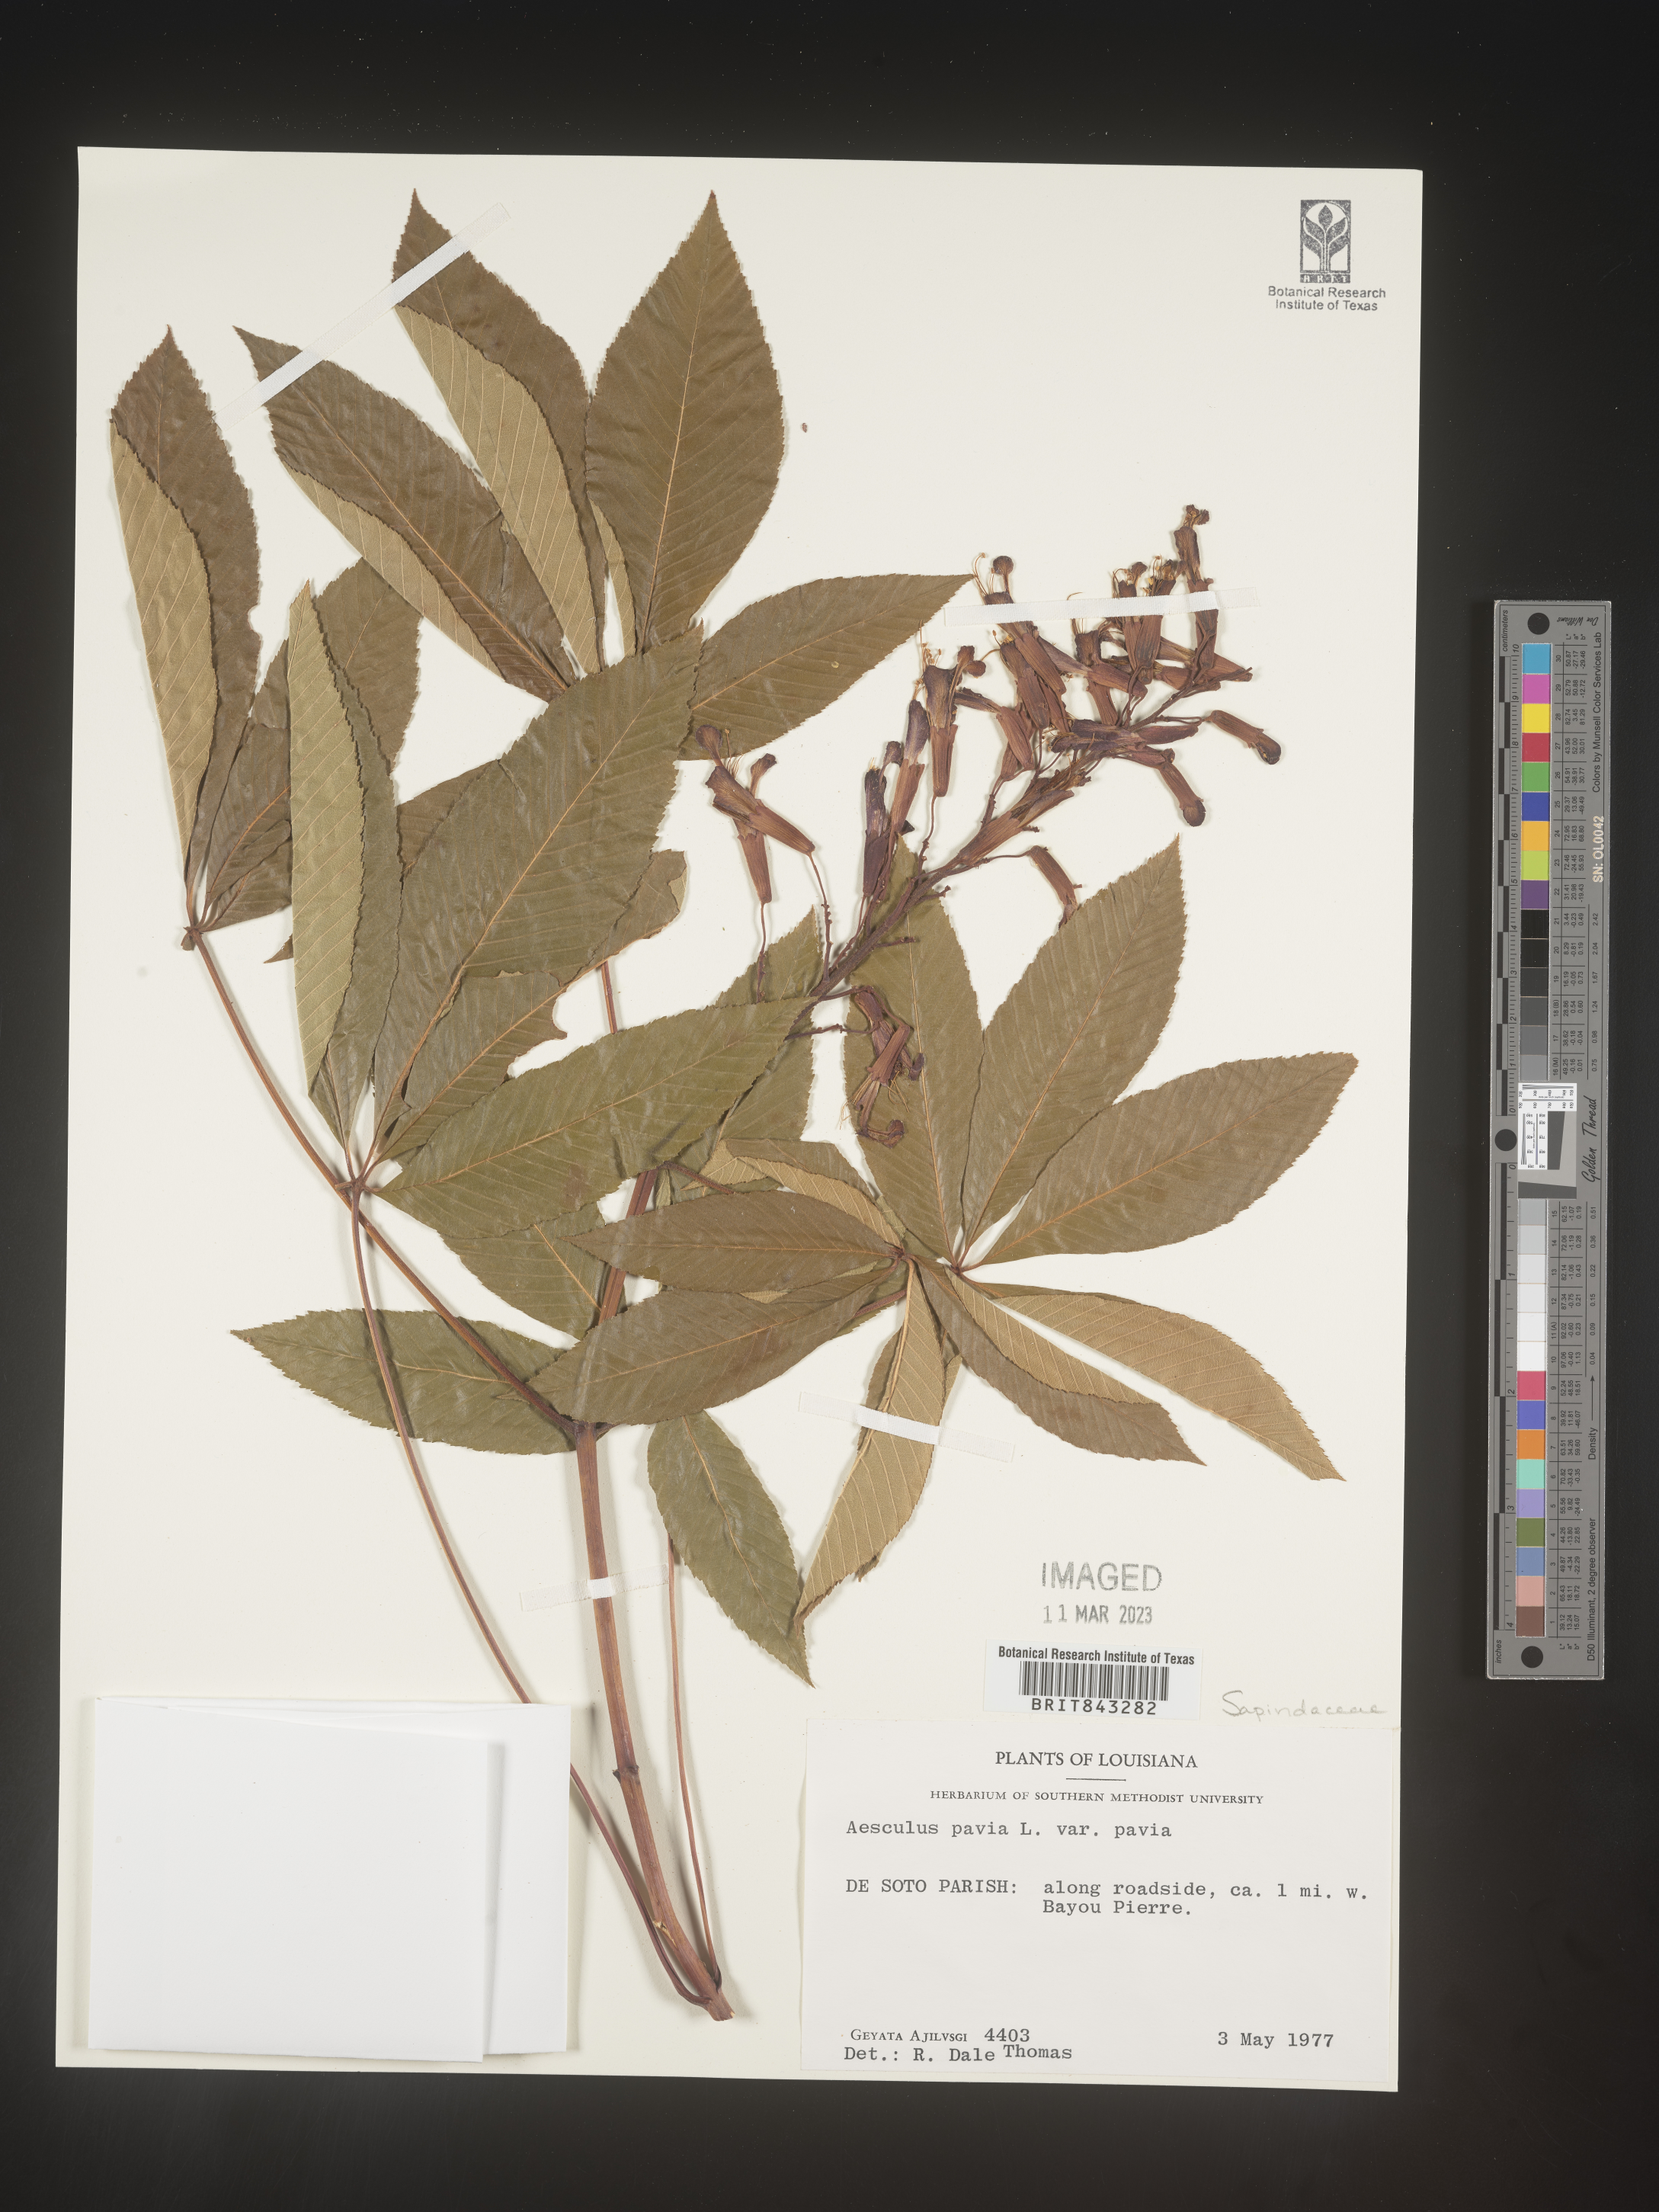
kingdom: Plantae
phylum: Tracheophyta
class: Magnoliopsida
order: Sapindales
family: Sapindaceae
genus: Aesculus
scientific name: Aesculus pavia
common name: Red buckeye
